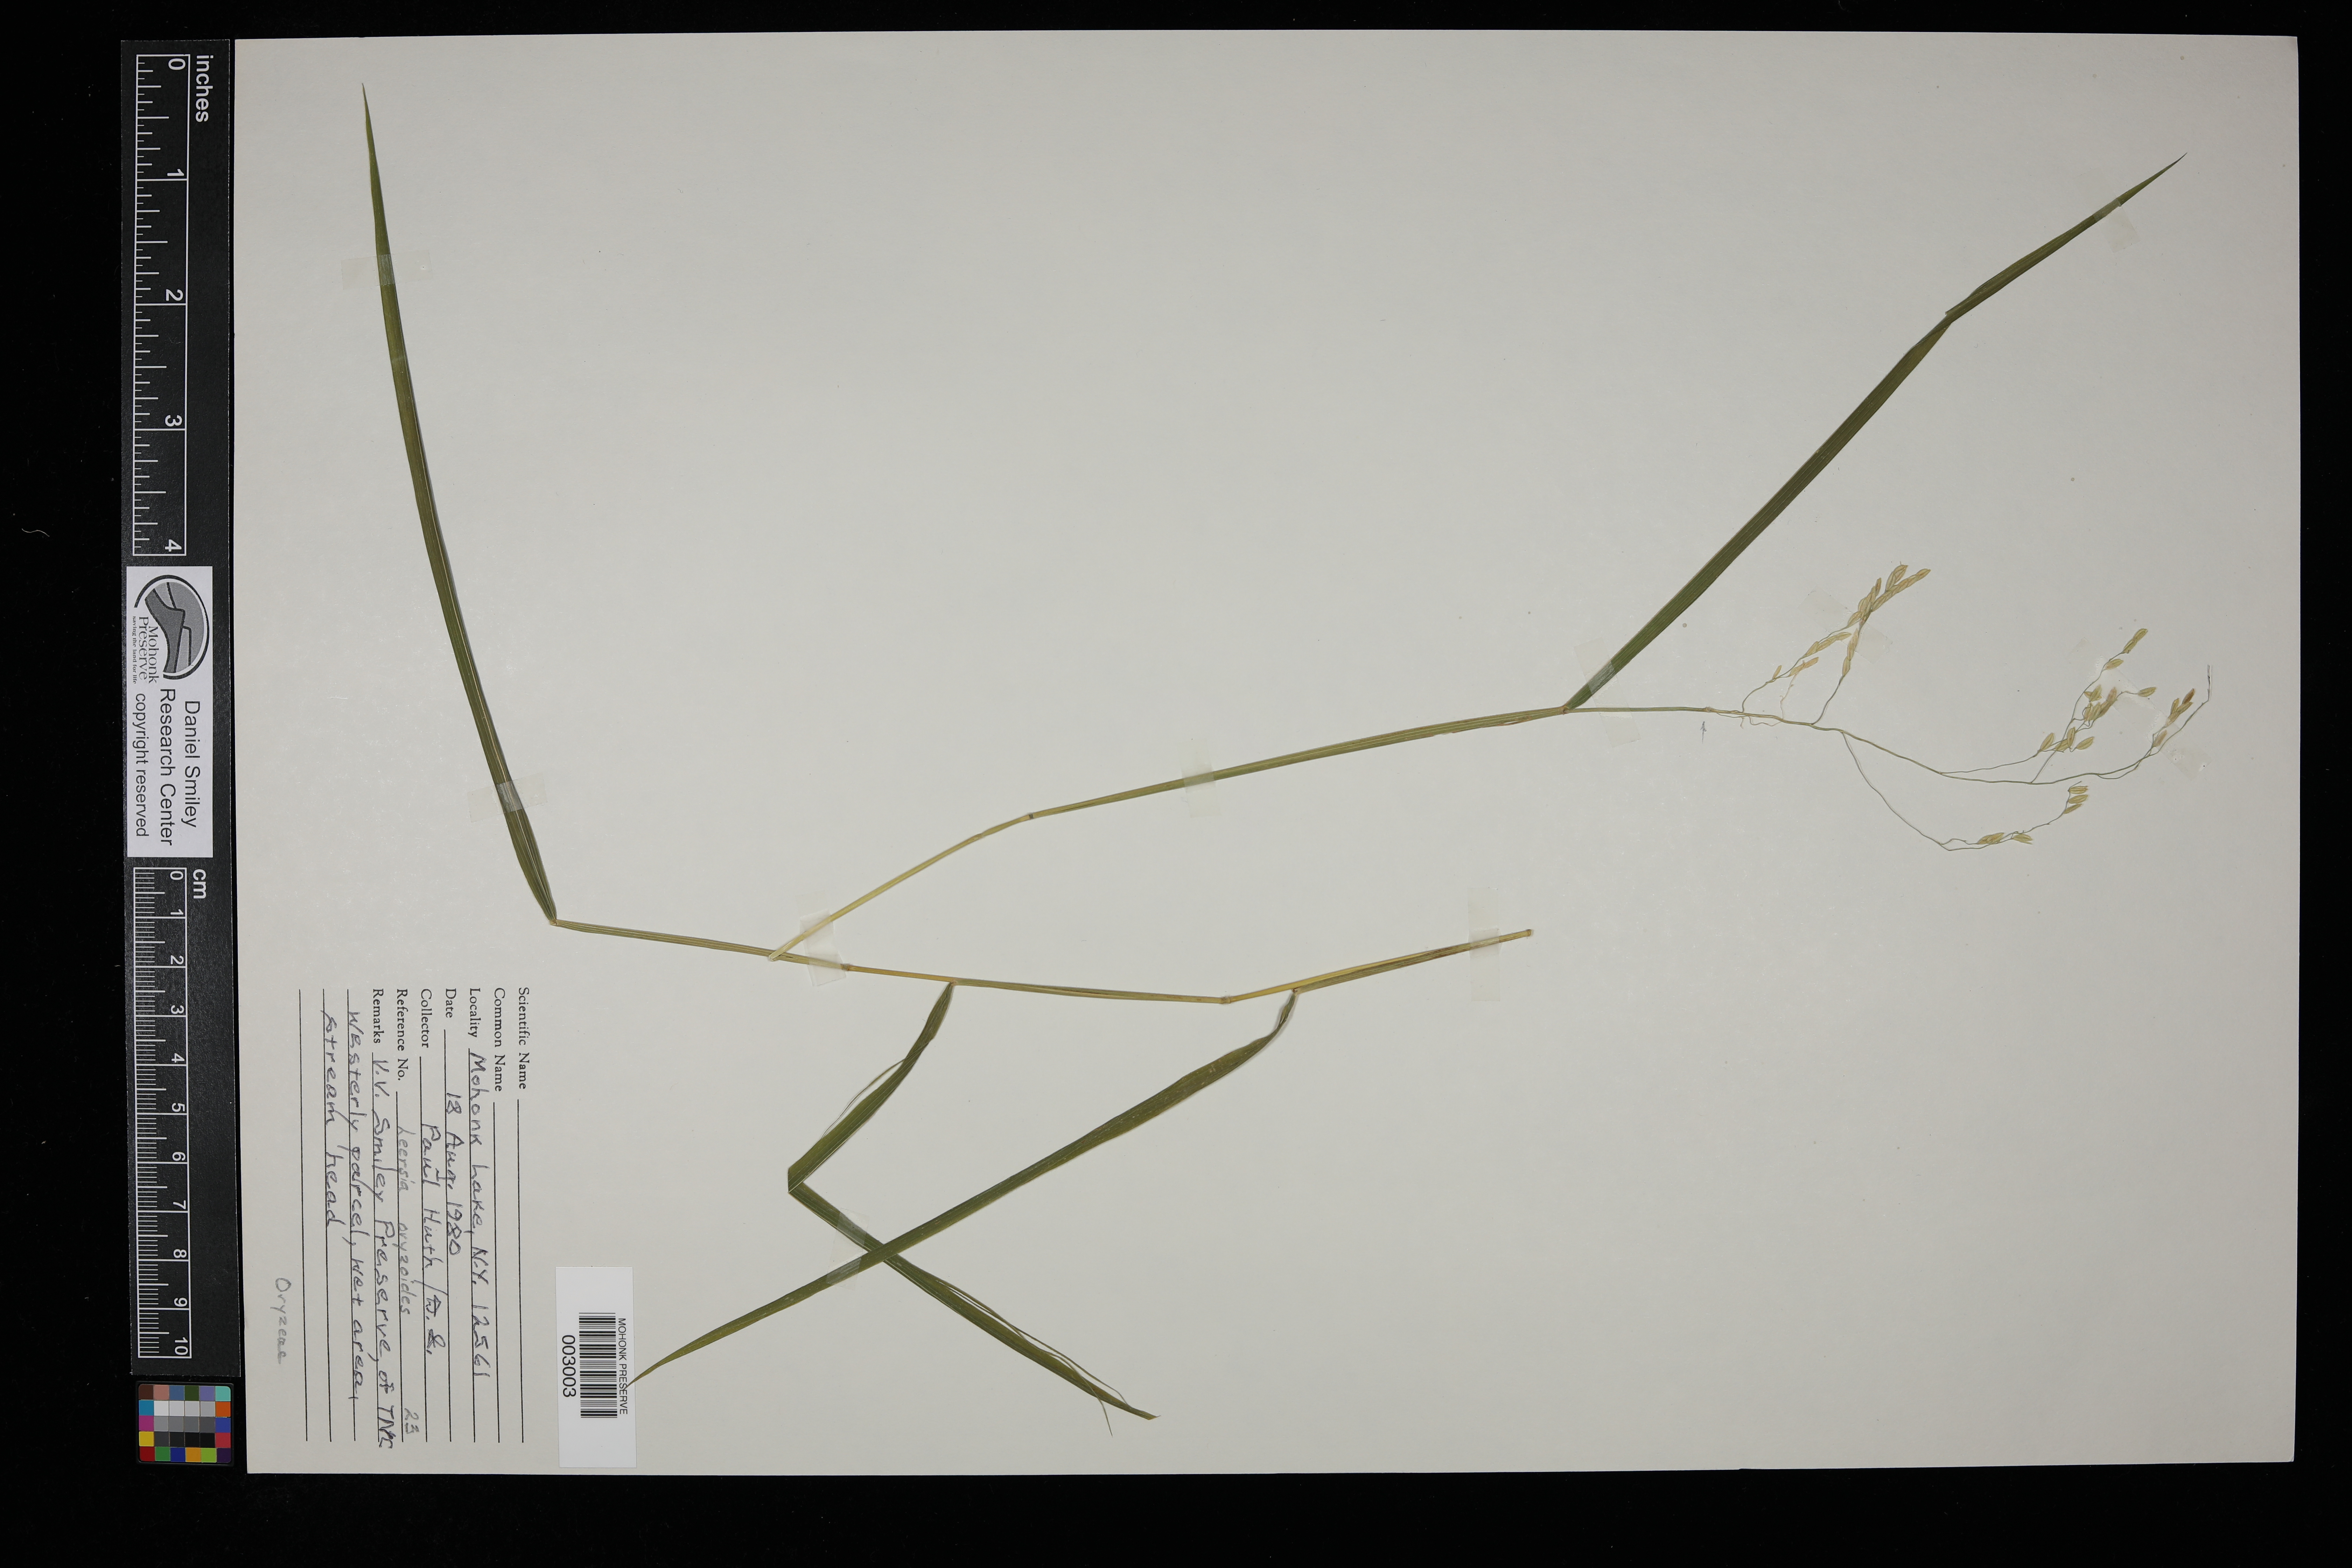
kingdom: Plantae
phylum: Tracheophyta
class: Liliopsida
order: Poales
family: Poaceae
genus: Leersia
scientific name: Leersia oryzoides
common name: Cut-grass
